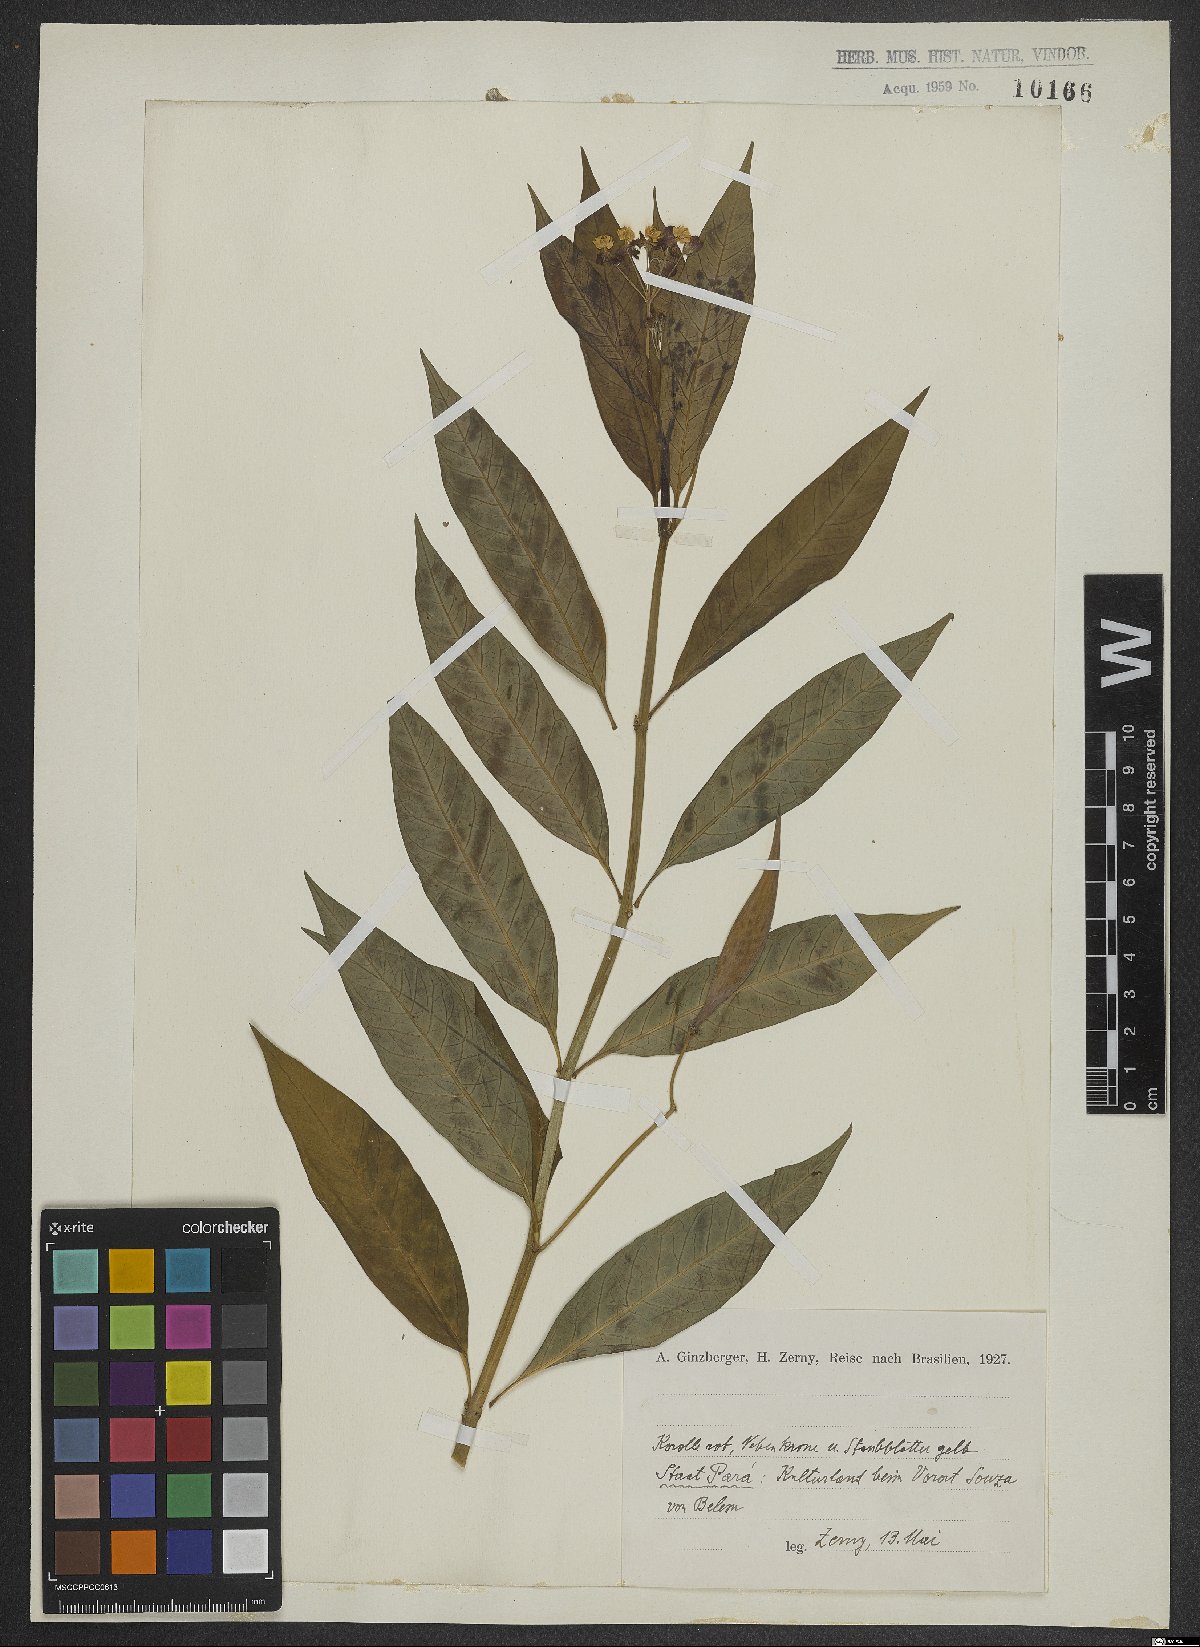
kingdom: Plantae
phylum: Tracheophyta
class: Magnoliopsida
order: Dipsacales
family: Valerianaceae
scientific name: Valerianaceae
